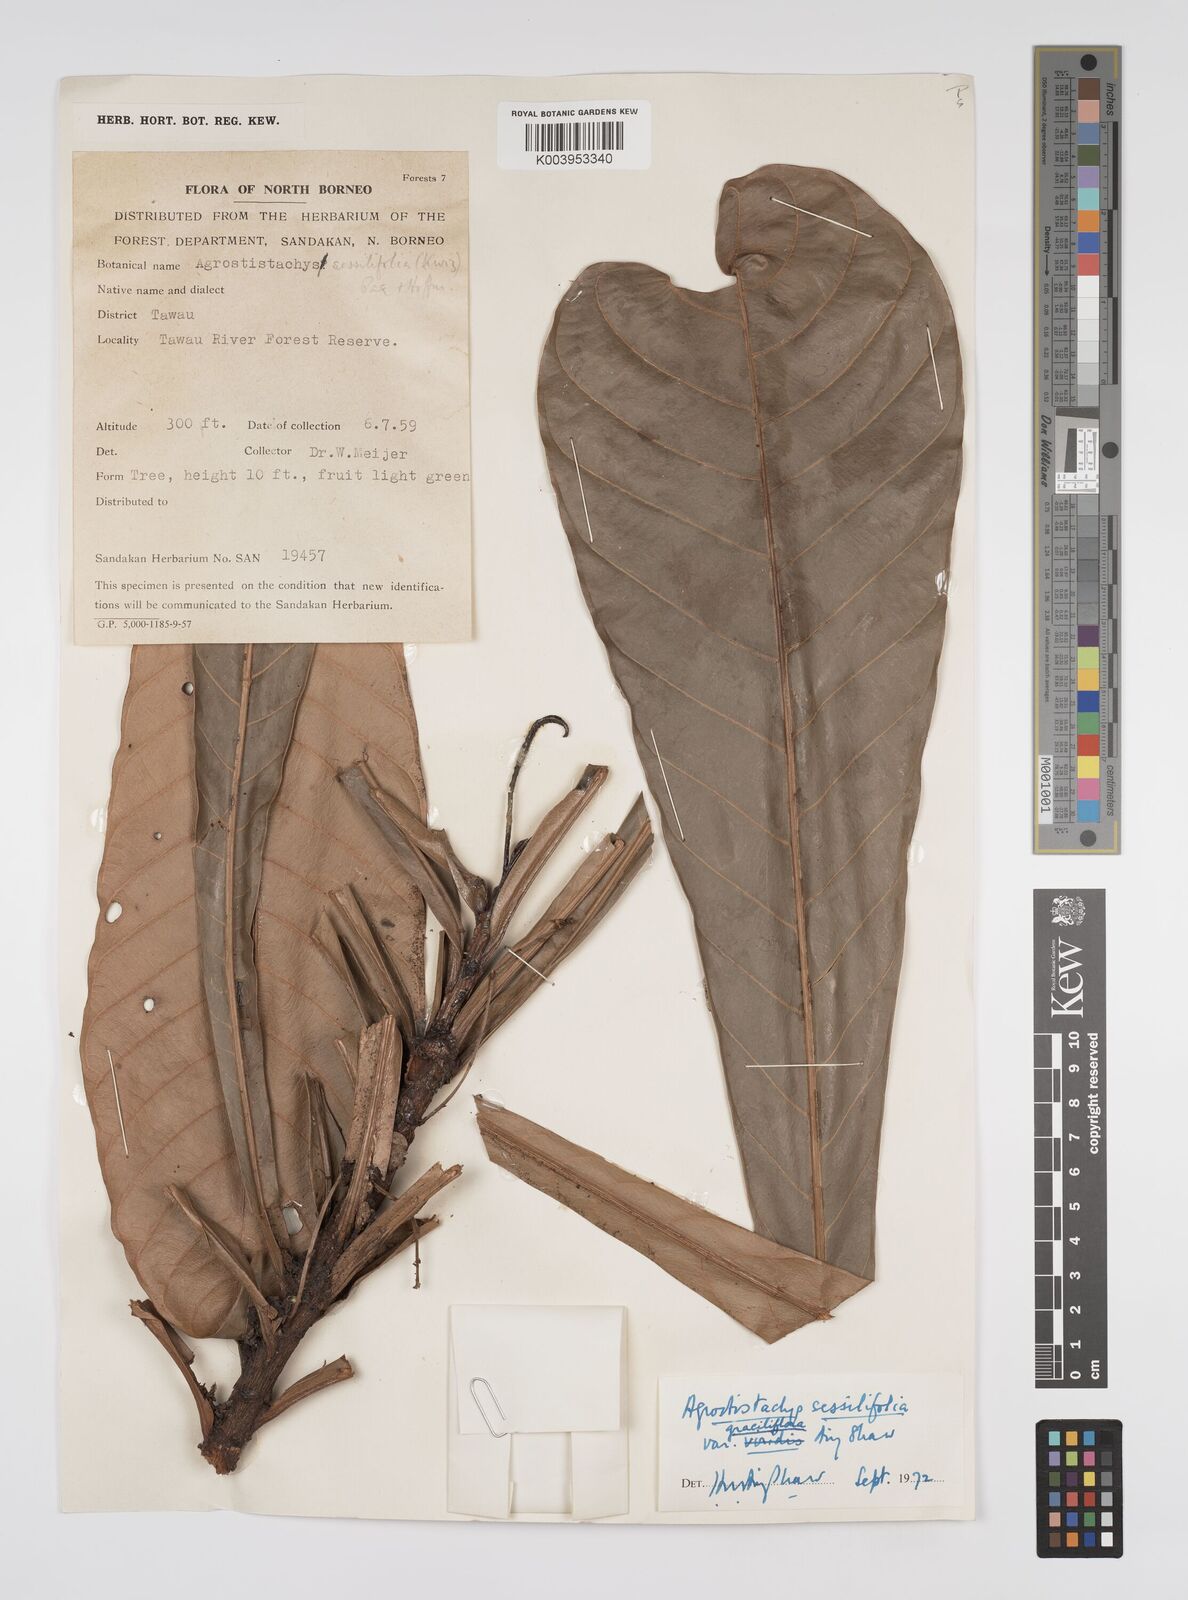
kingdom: Plantae
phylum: Tracheophyta
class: Magnoliopsida
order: Malpighiales
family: Euphorbiaceae
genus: Agrostistachys
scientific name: Agrostistachys sessilifolia
